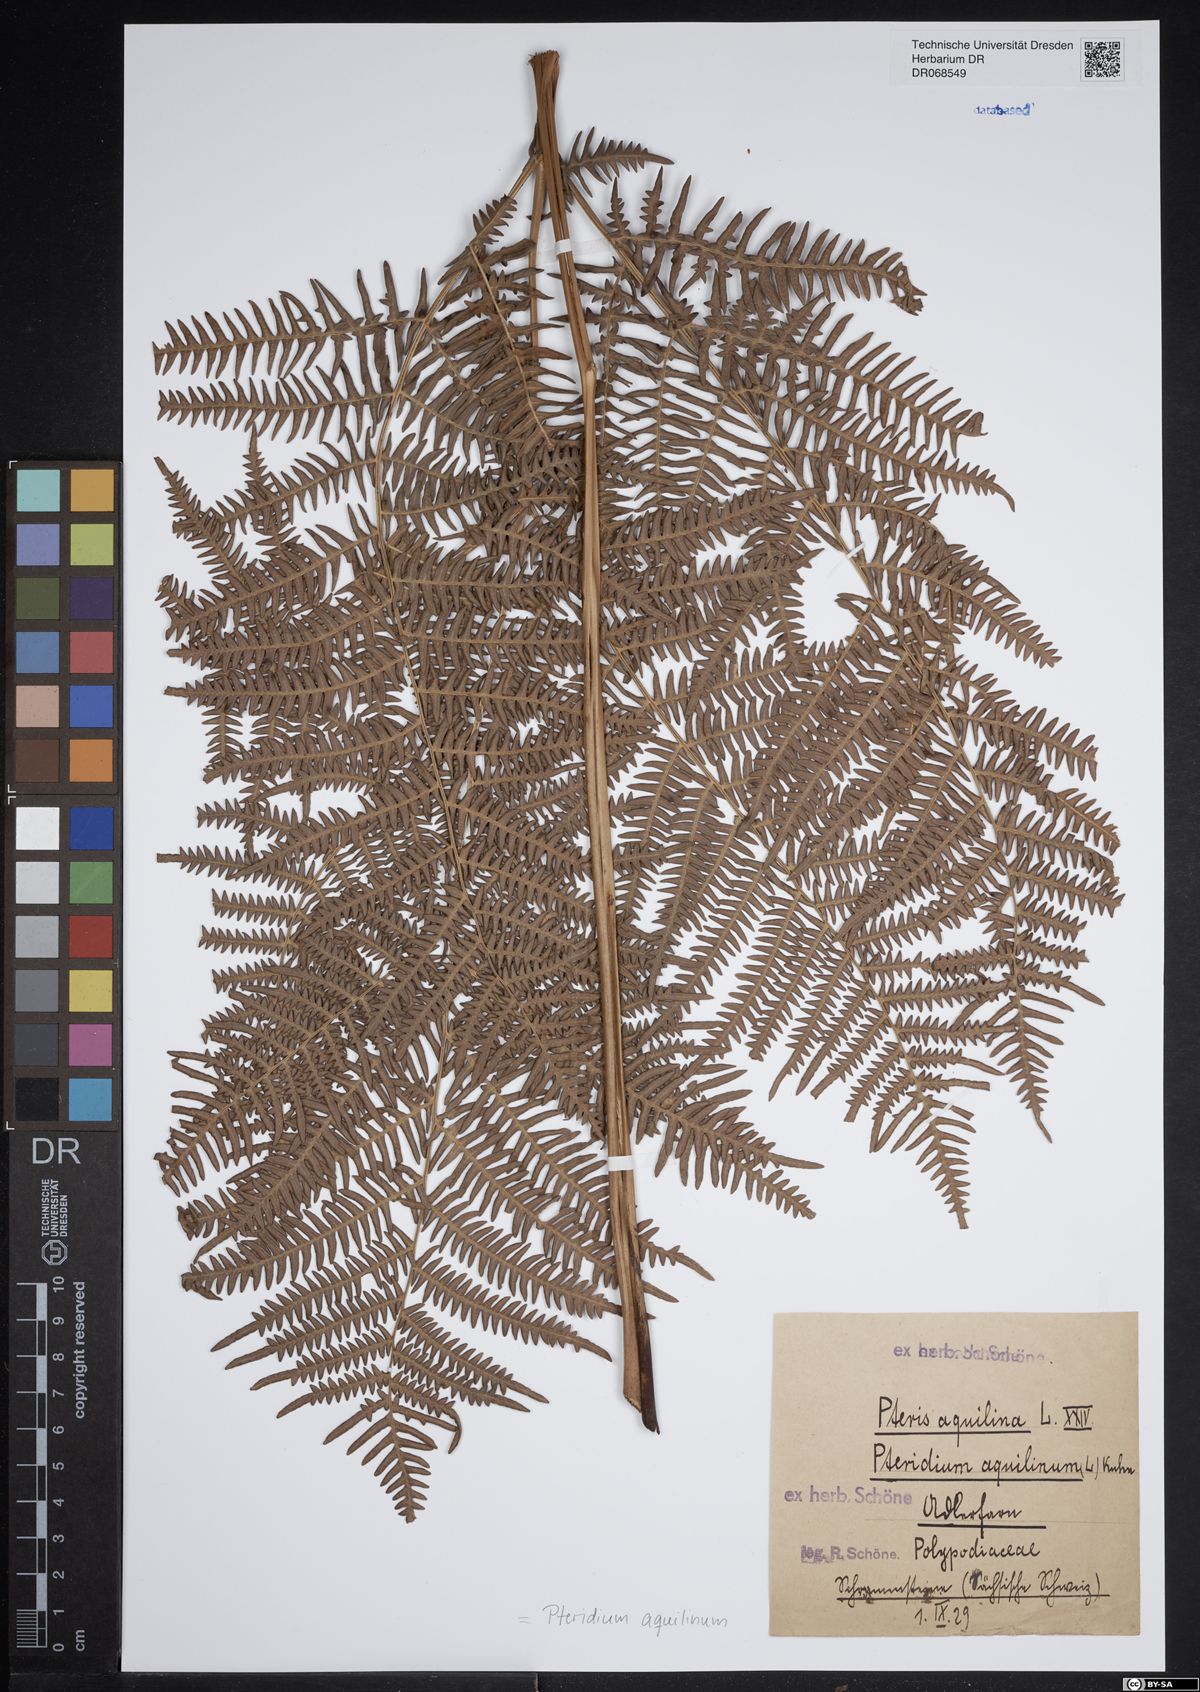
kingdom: Plantae
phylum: Tracheophyta
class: Polypodiopsida
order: Polypodiales
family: Dennstaedtiaceae
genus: Pteridium
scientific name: Pteridium aquilinum
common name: Bracken
